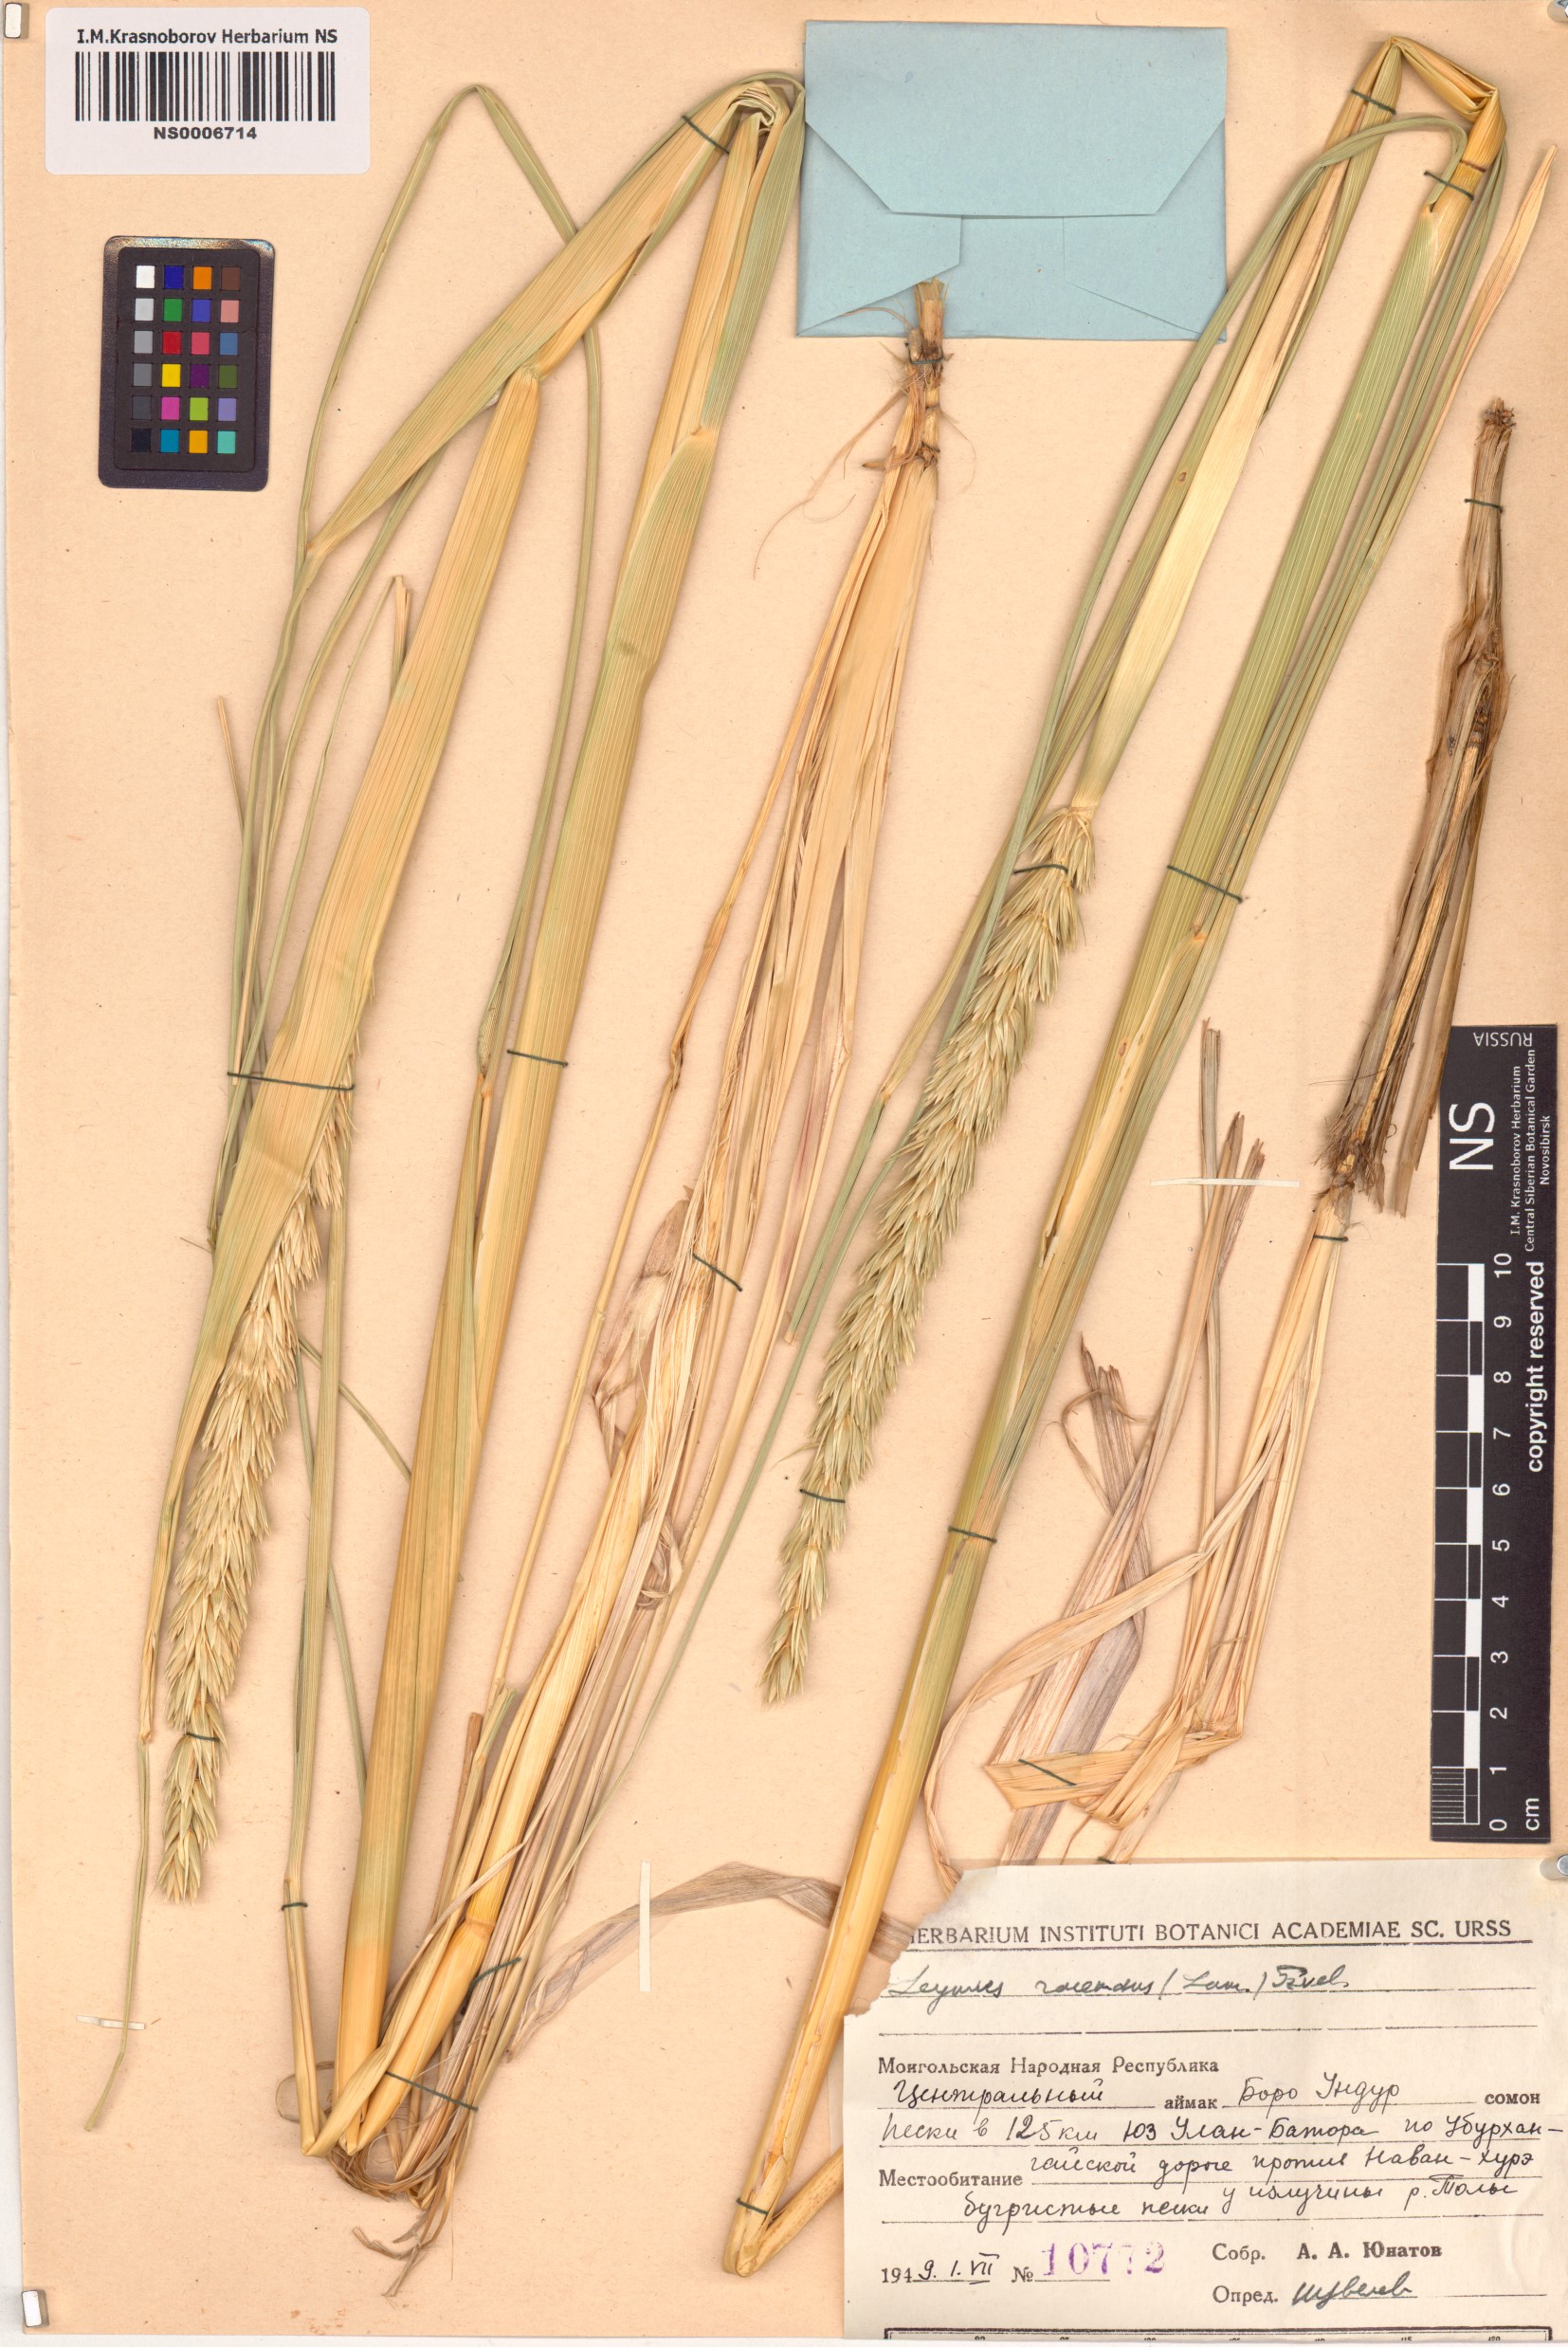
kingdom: Plantae
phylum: Tracheophyta
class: Liliopsida
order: Poales
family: Poaceae
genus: Leymus
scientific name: Leymus racemosus
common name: Mammoth wildrye
